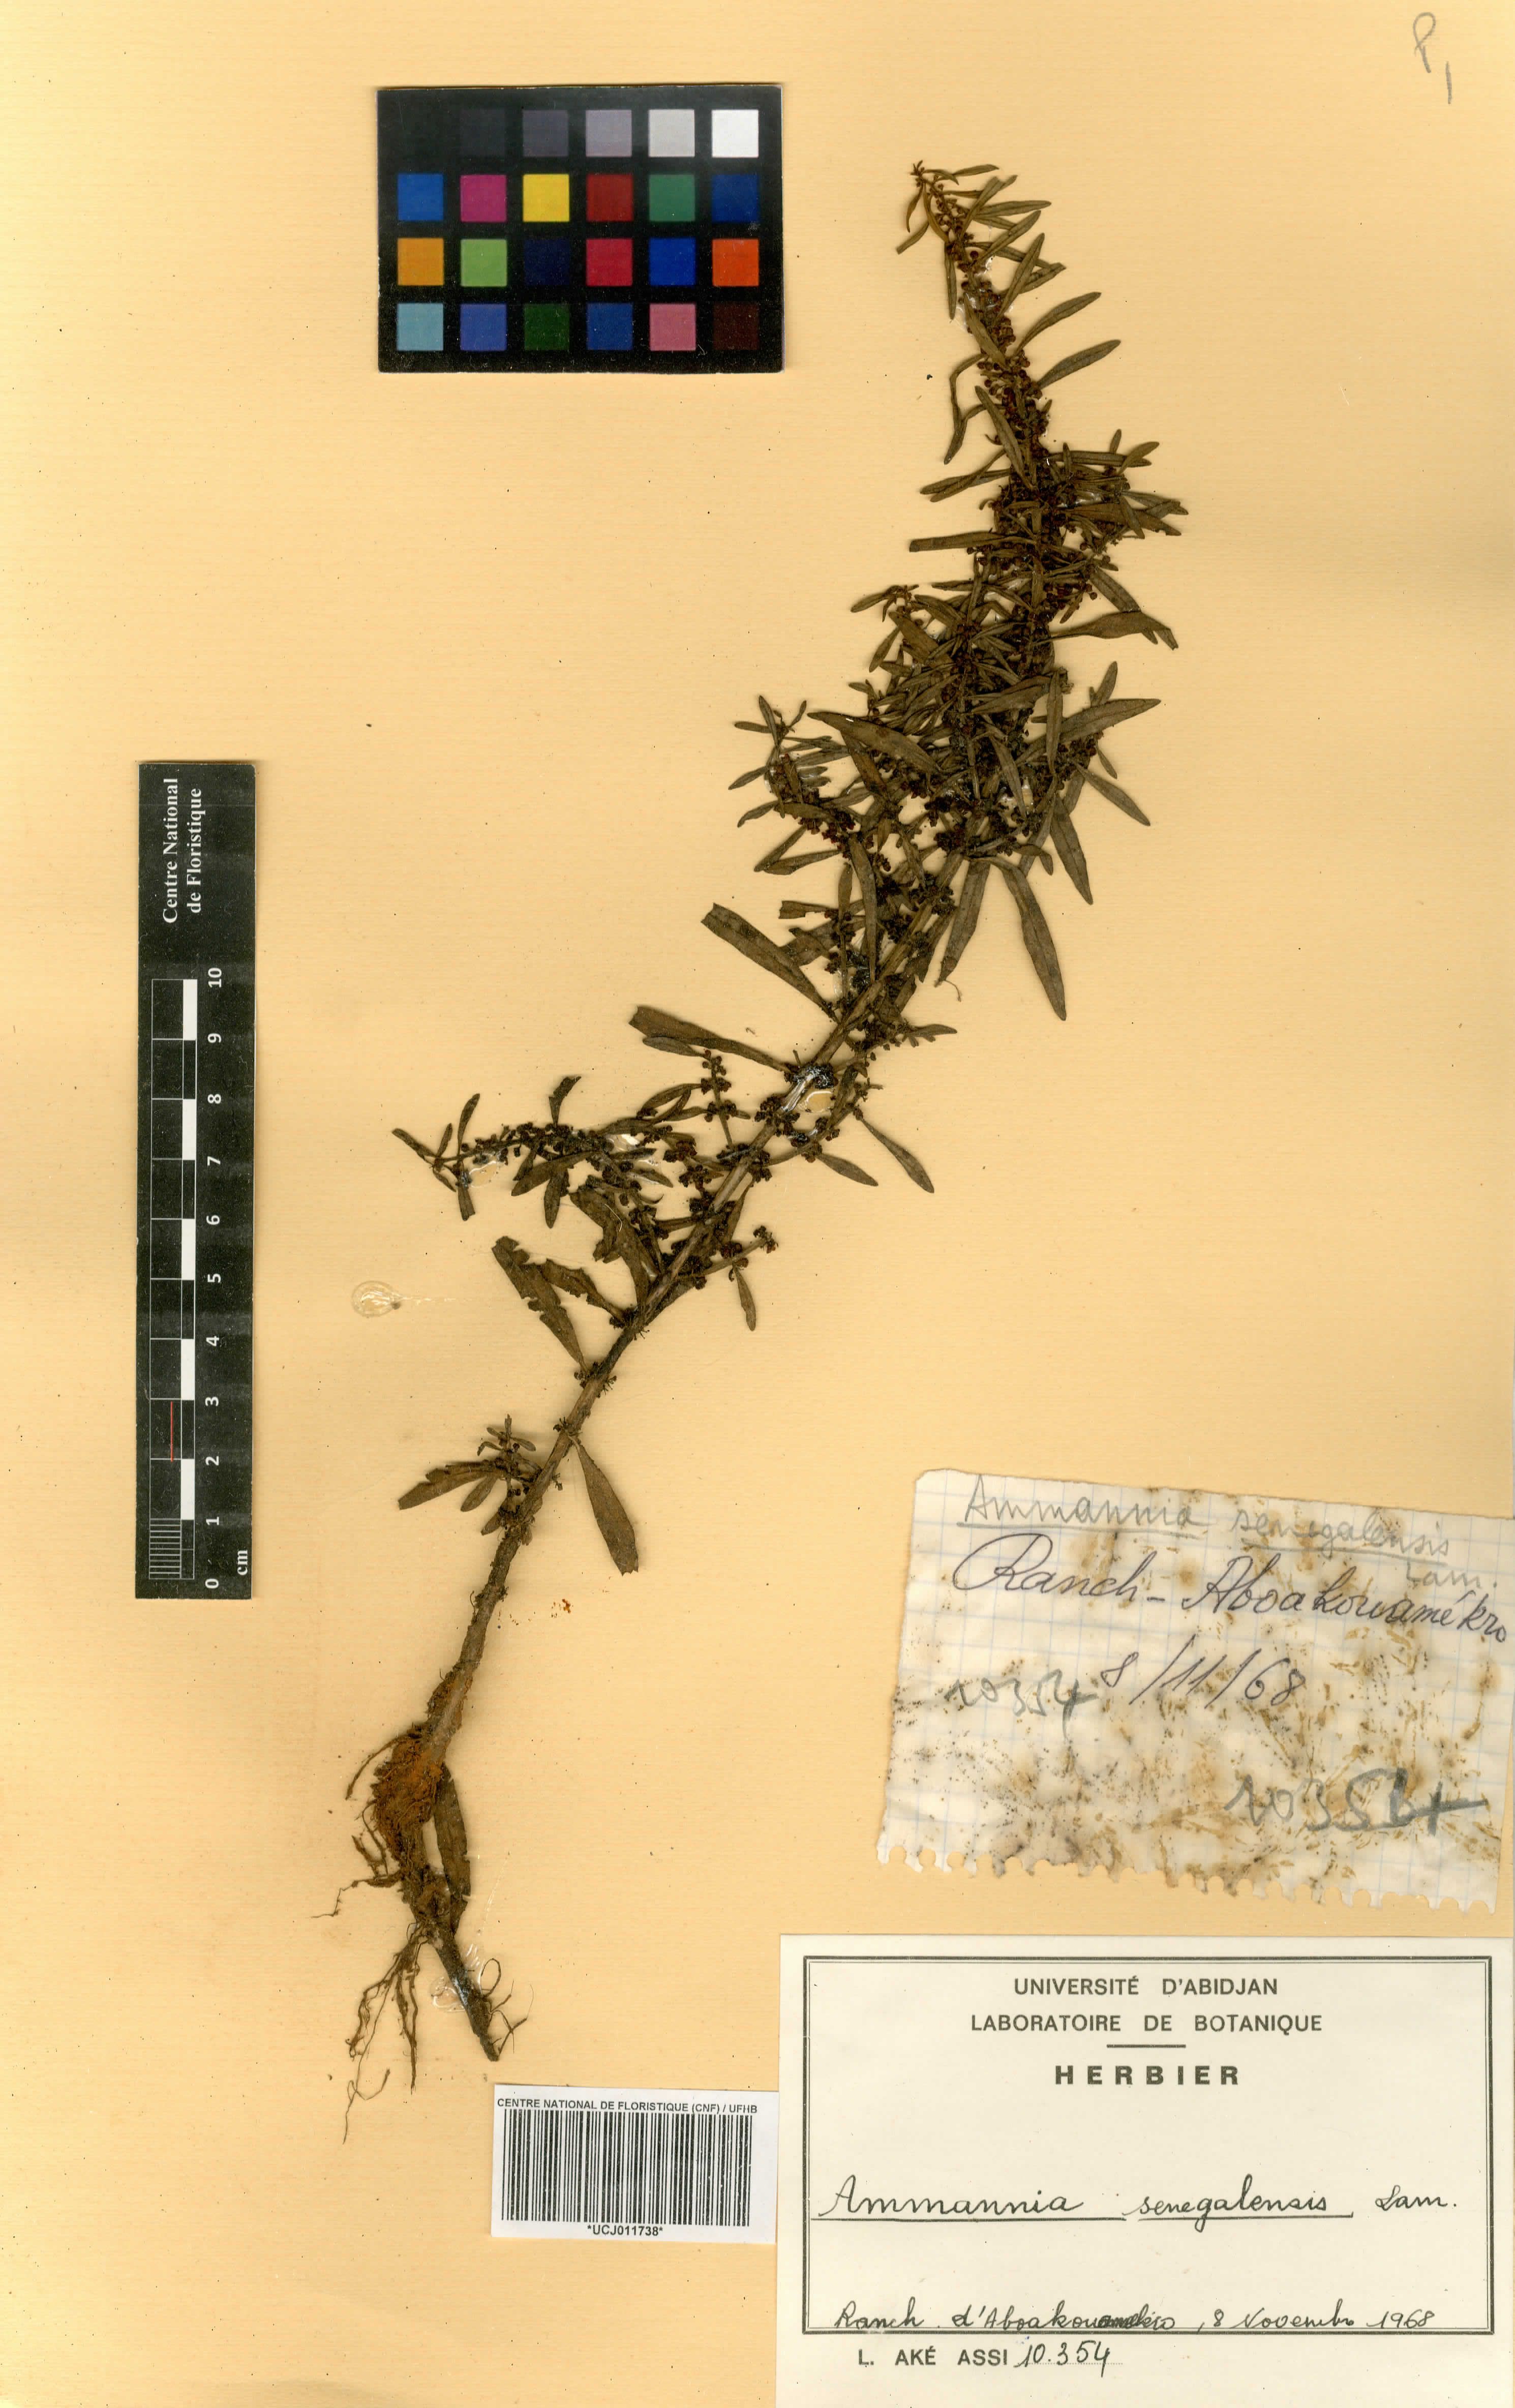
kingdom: Plantae
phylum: Tracheophyta
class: Magnoliopsida
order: Myrtales
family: Lythraceae
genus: Ammannia
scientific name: Ammannia senegalensis
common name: Red ammannia
